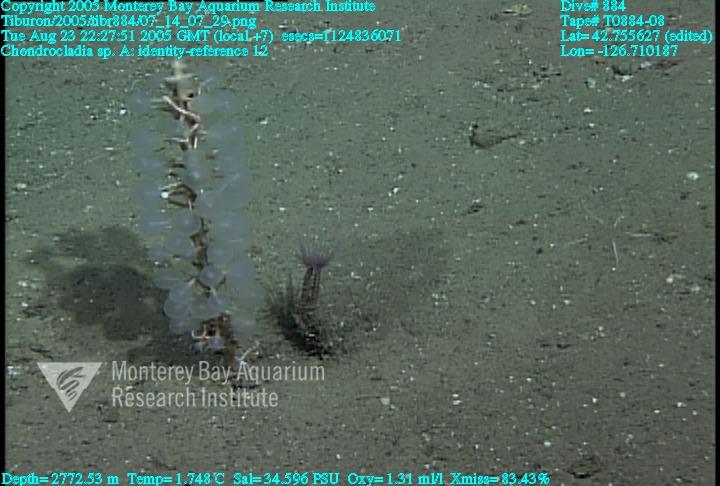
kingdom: Animalia
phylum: Porifera
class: Demospongiae
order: Poecilosclerida
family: Cladorhizidae
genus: Chondrocladia
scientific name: Chondrocladia
